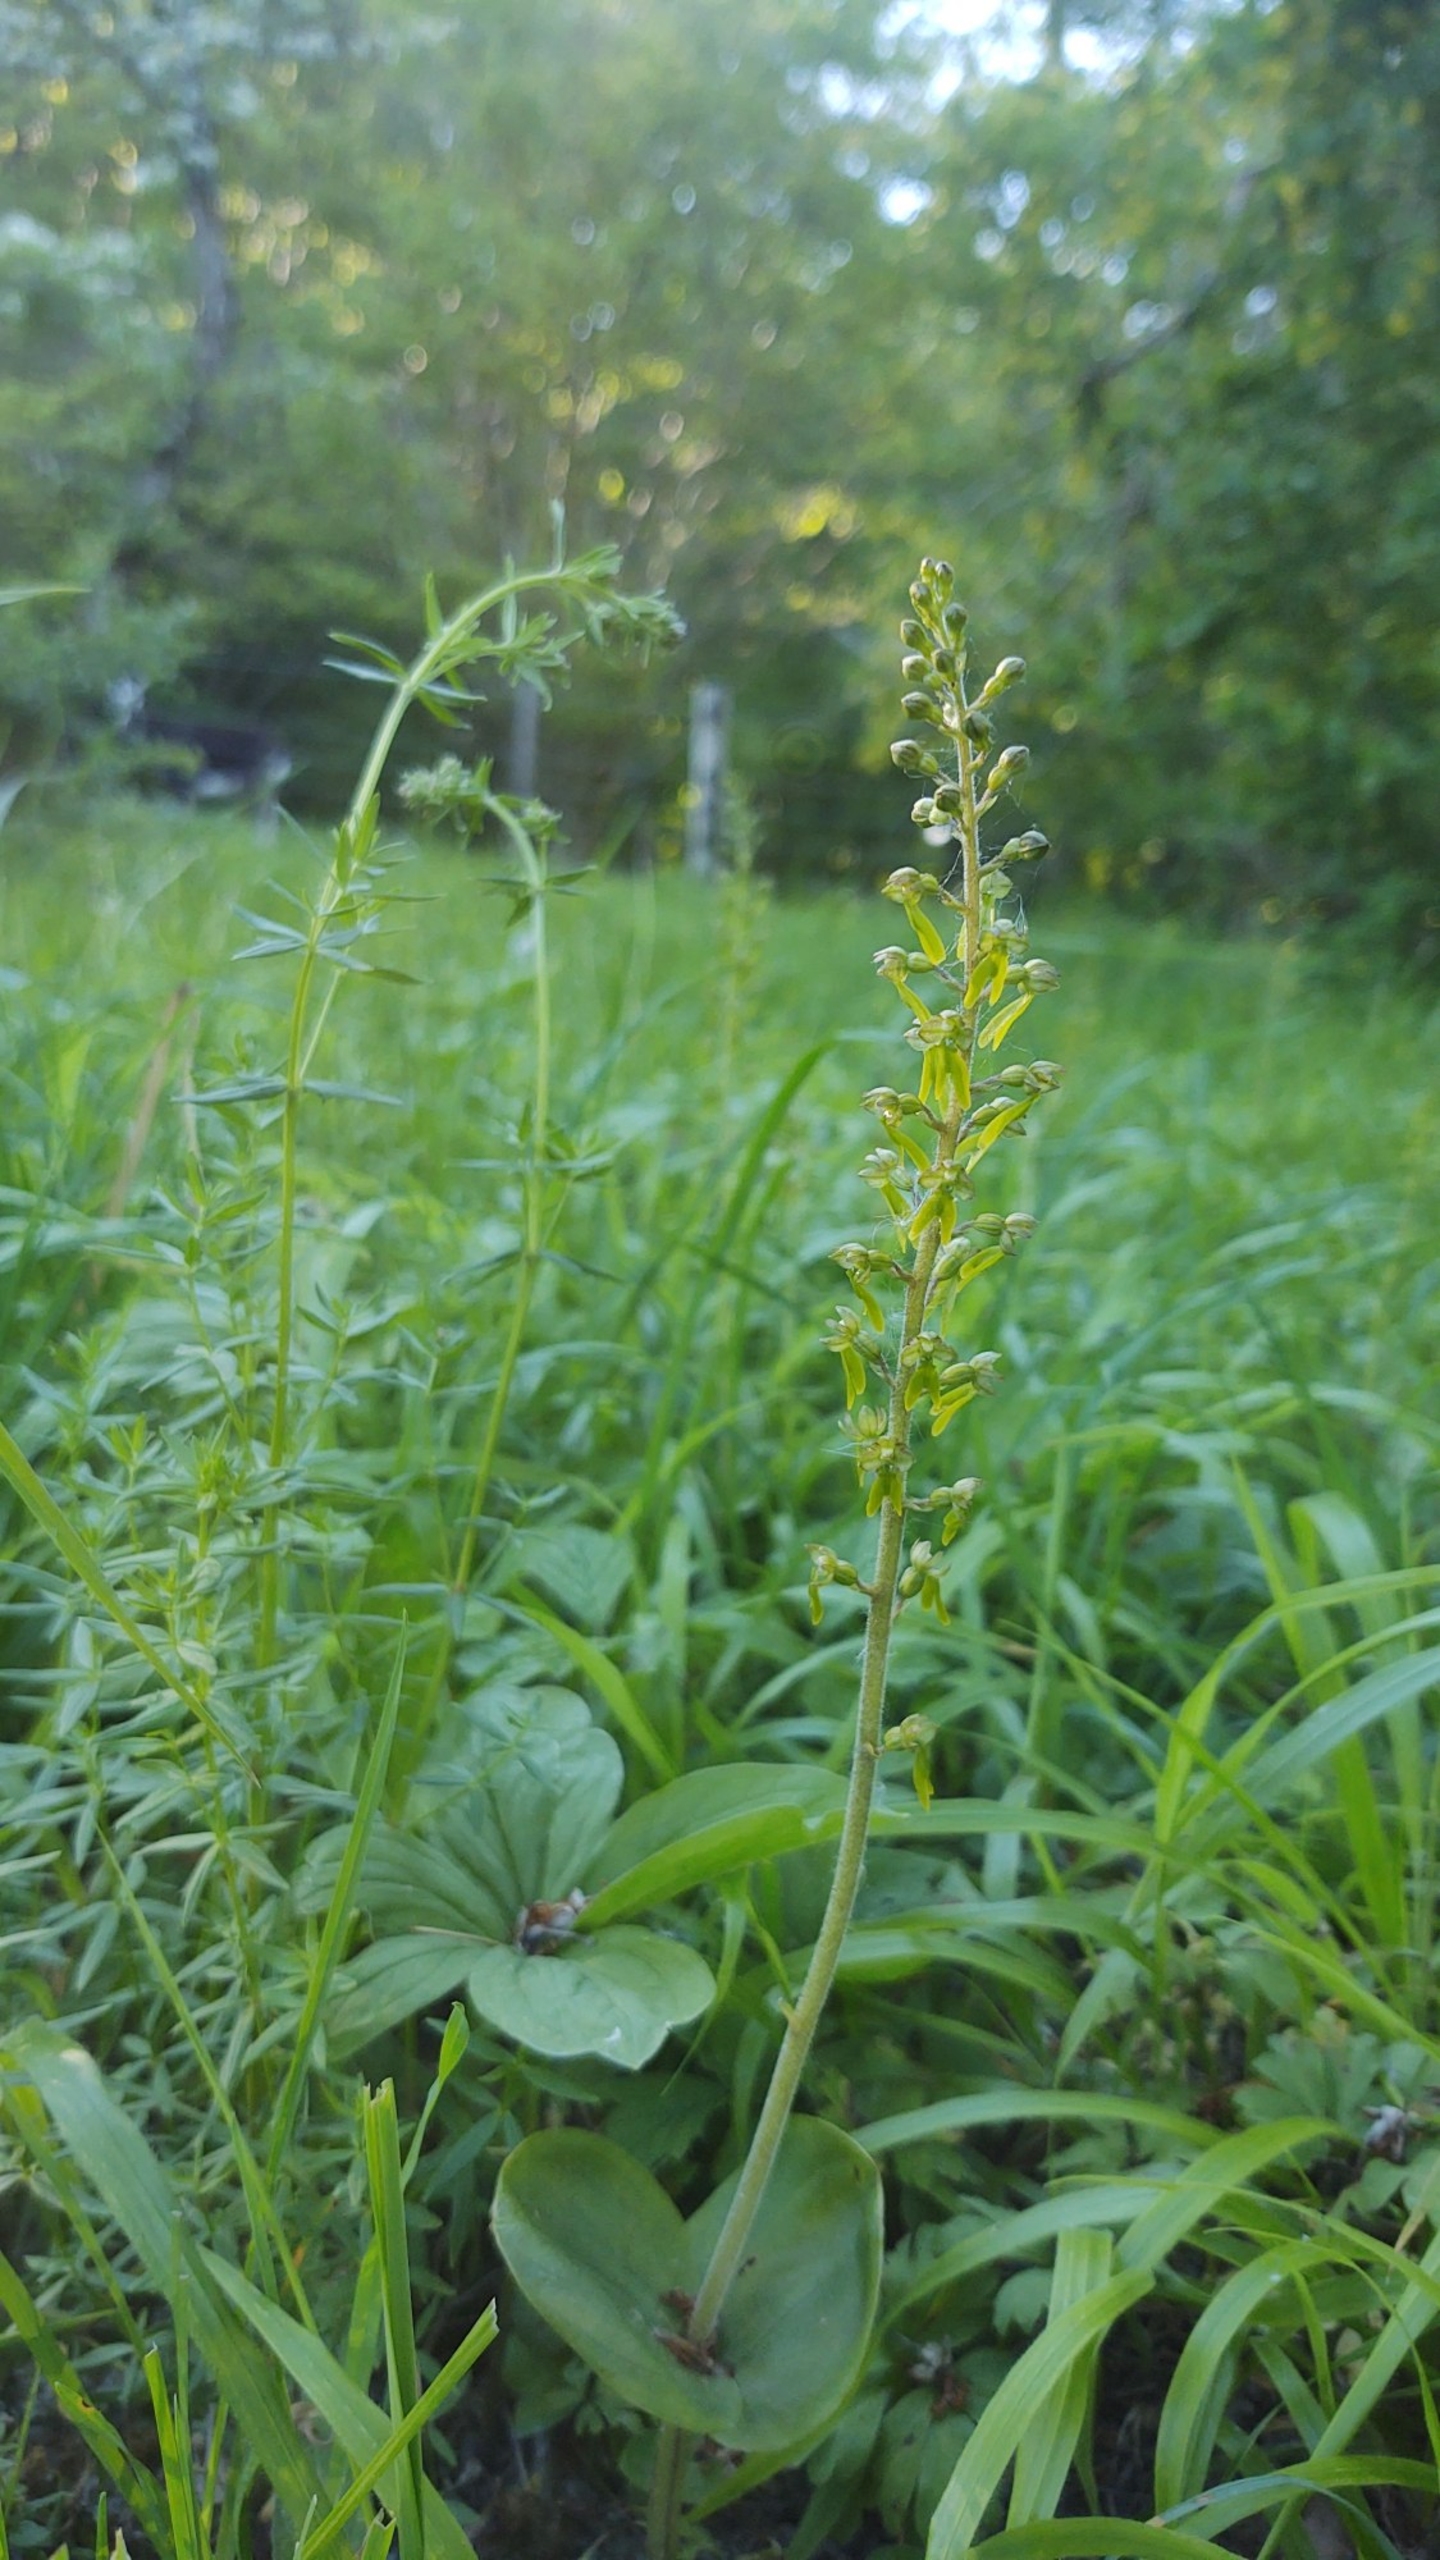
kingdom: Plantae
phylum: Tracheophyta
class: Liliopsida
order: Asparagales
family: Orchidaceae
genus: Neottia
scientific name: Neottia ovata
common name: Ægbladet fliglæbe
